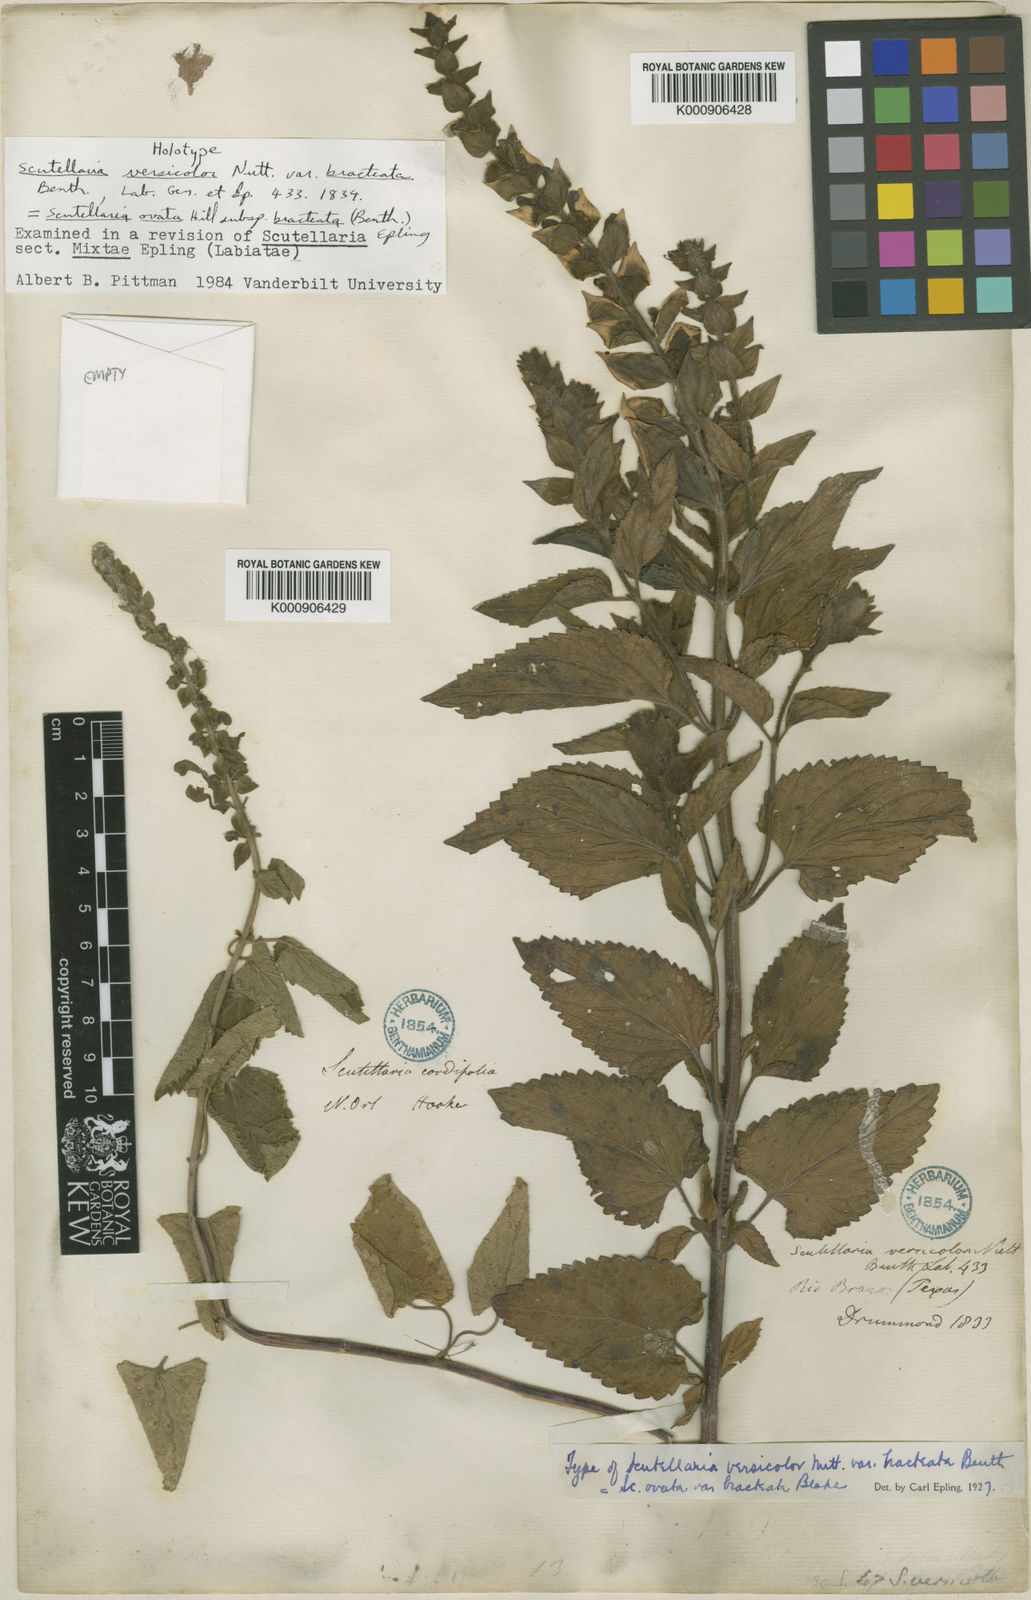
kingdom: Plantae
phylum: Tracheophyta
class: Magnoliopsida
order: Lamiales
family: Lamiaceae
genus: Scutellaria
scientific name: Scutellaria ovata
